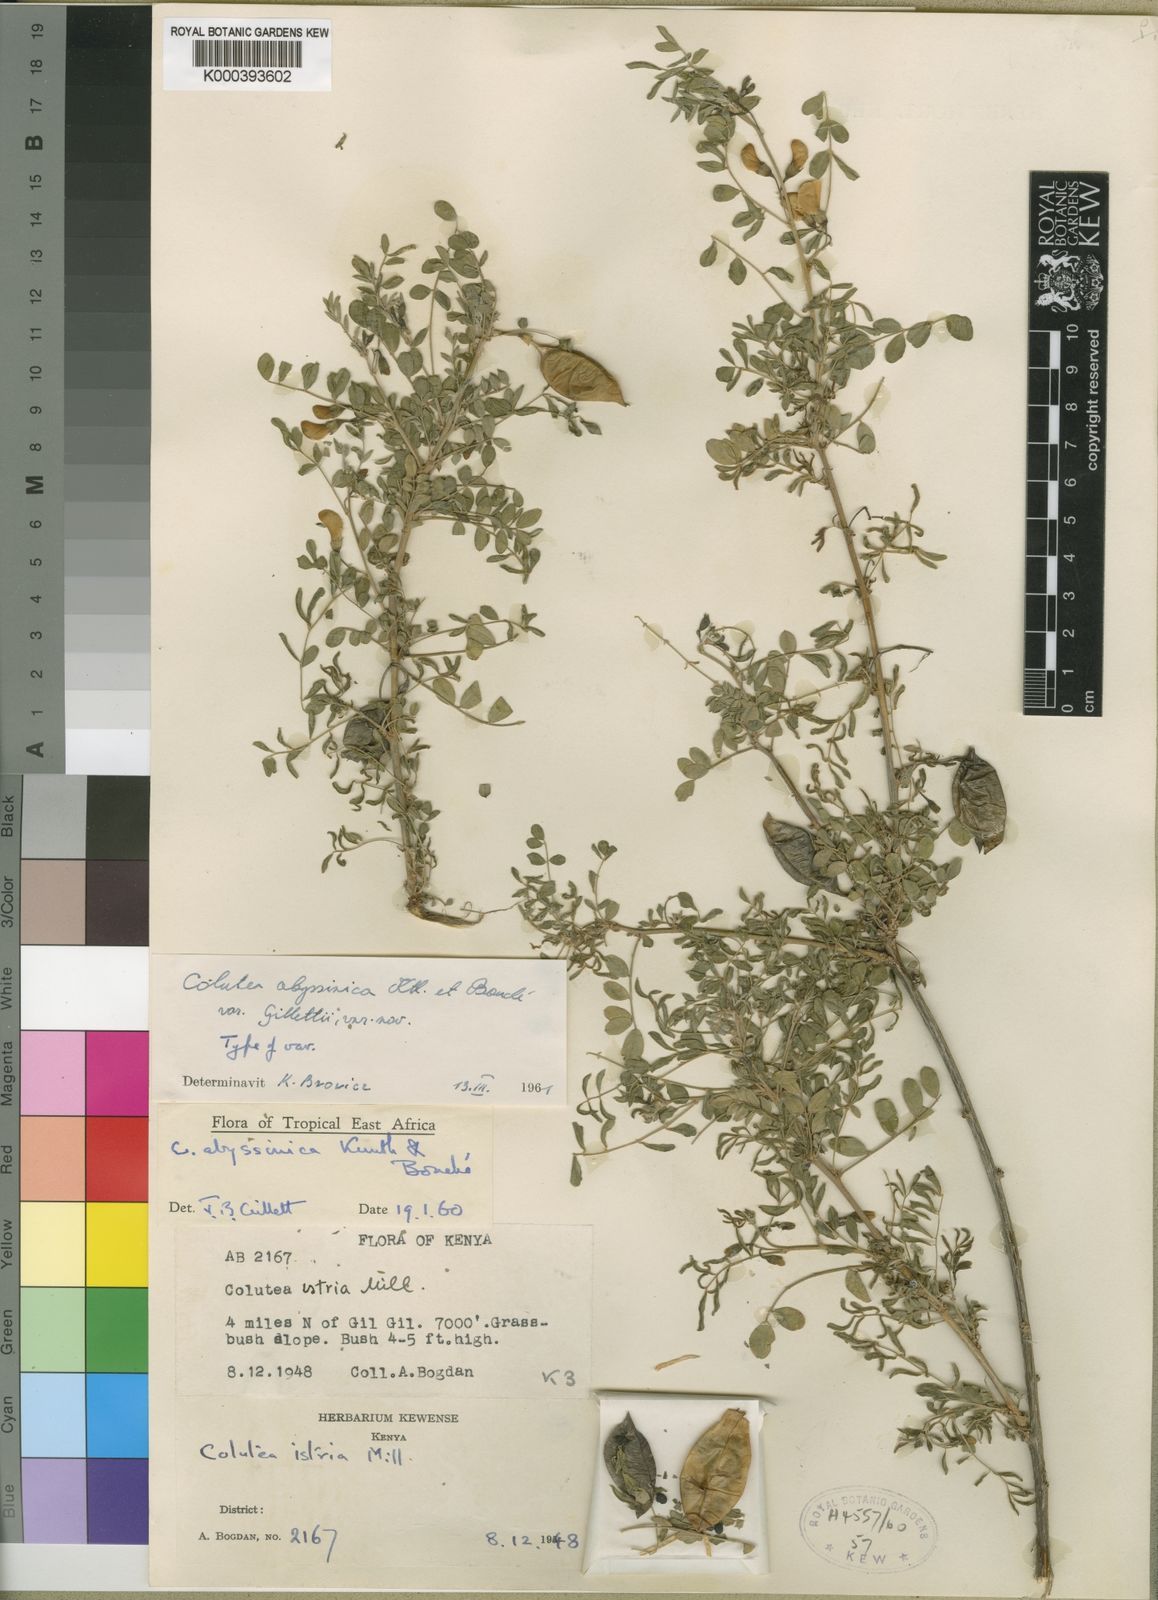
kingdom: Plantae
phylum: Tracheophyta
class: Magnoliopsida
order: Fabales
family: Fabaceae
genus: Colutea
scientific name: Colutea abyssinica
